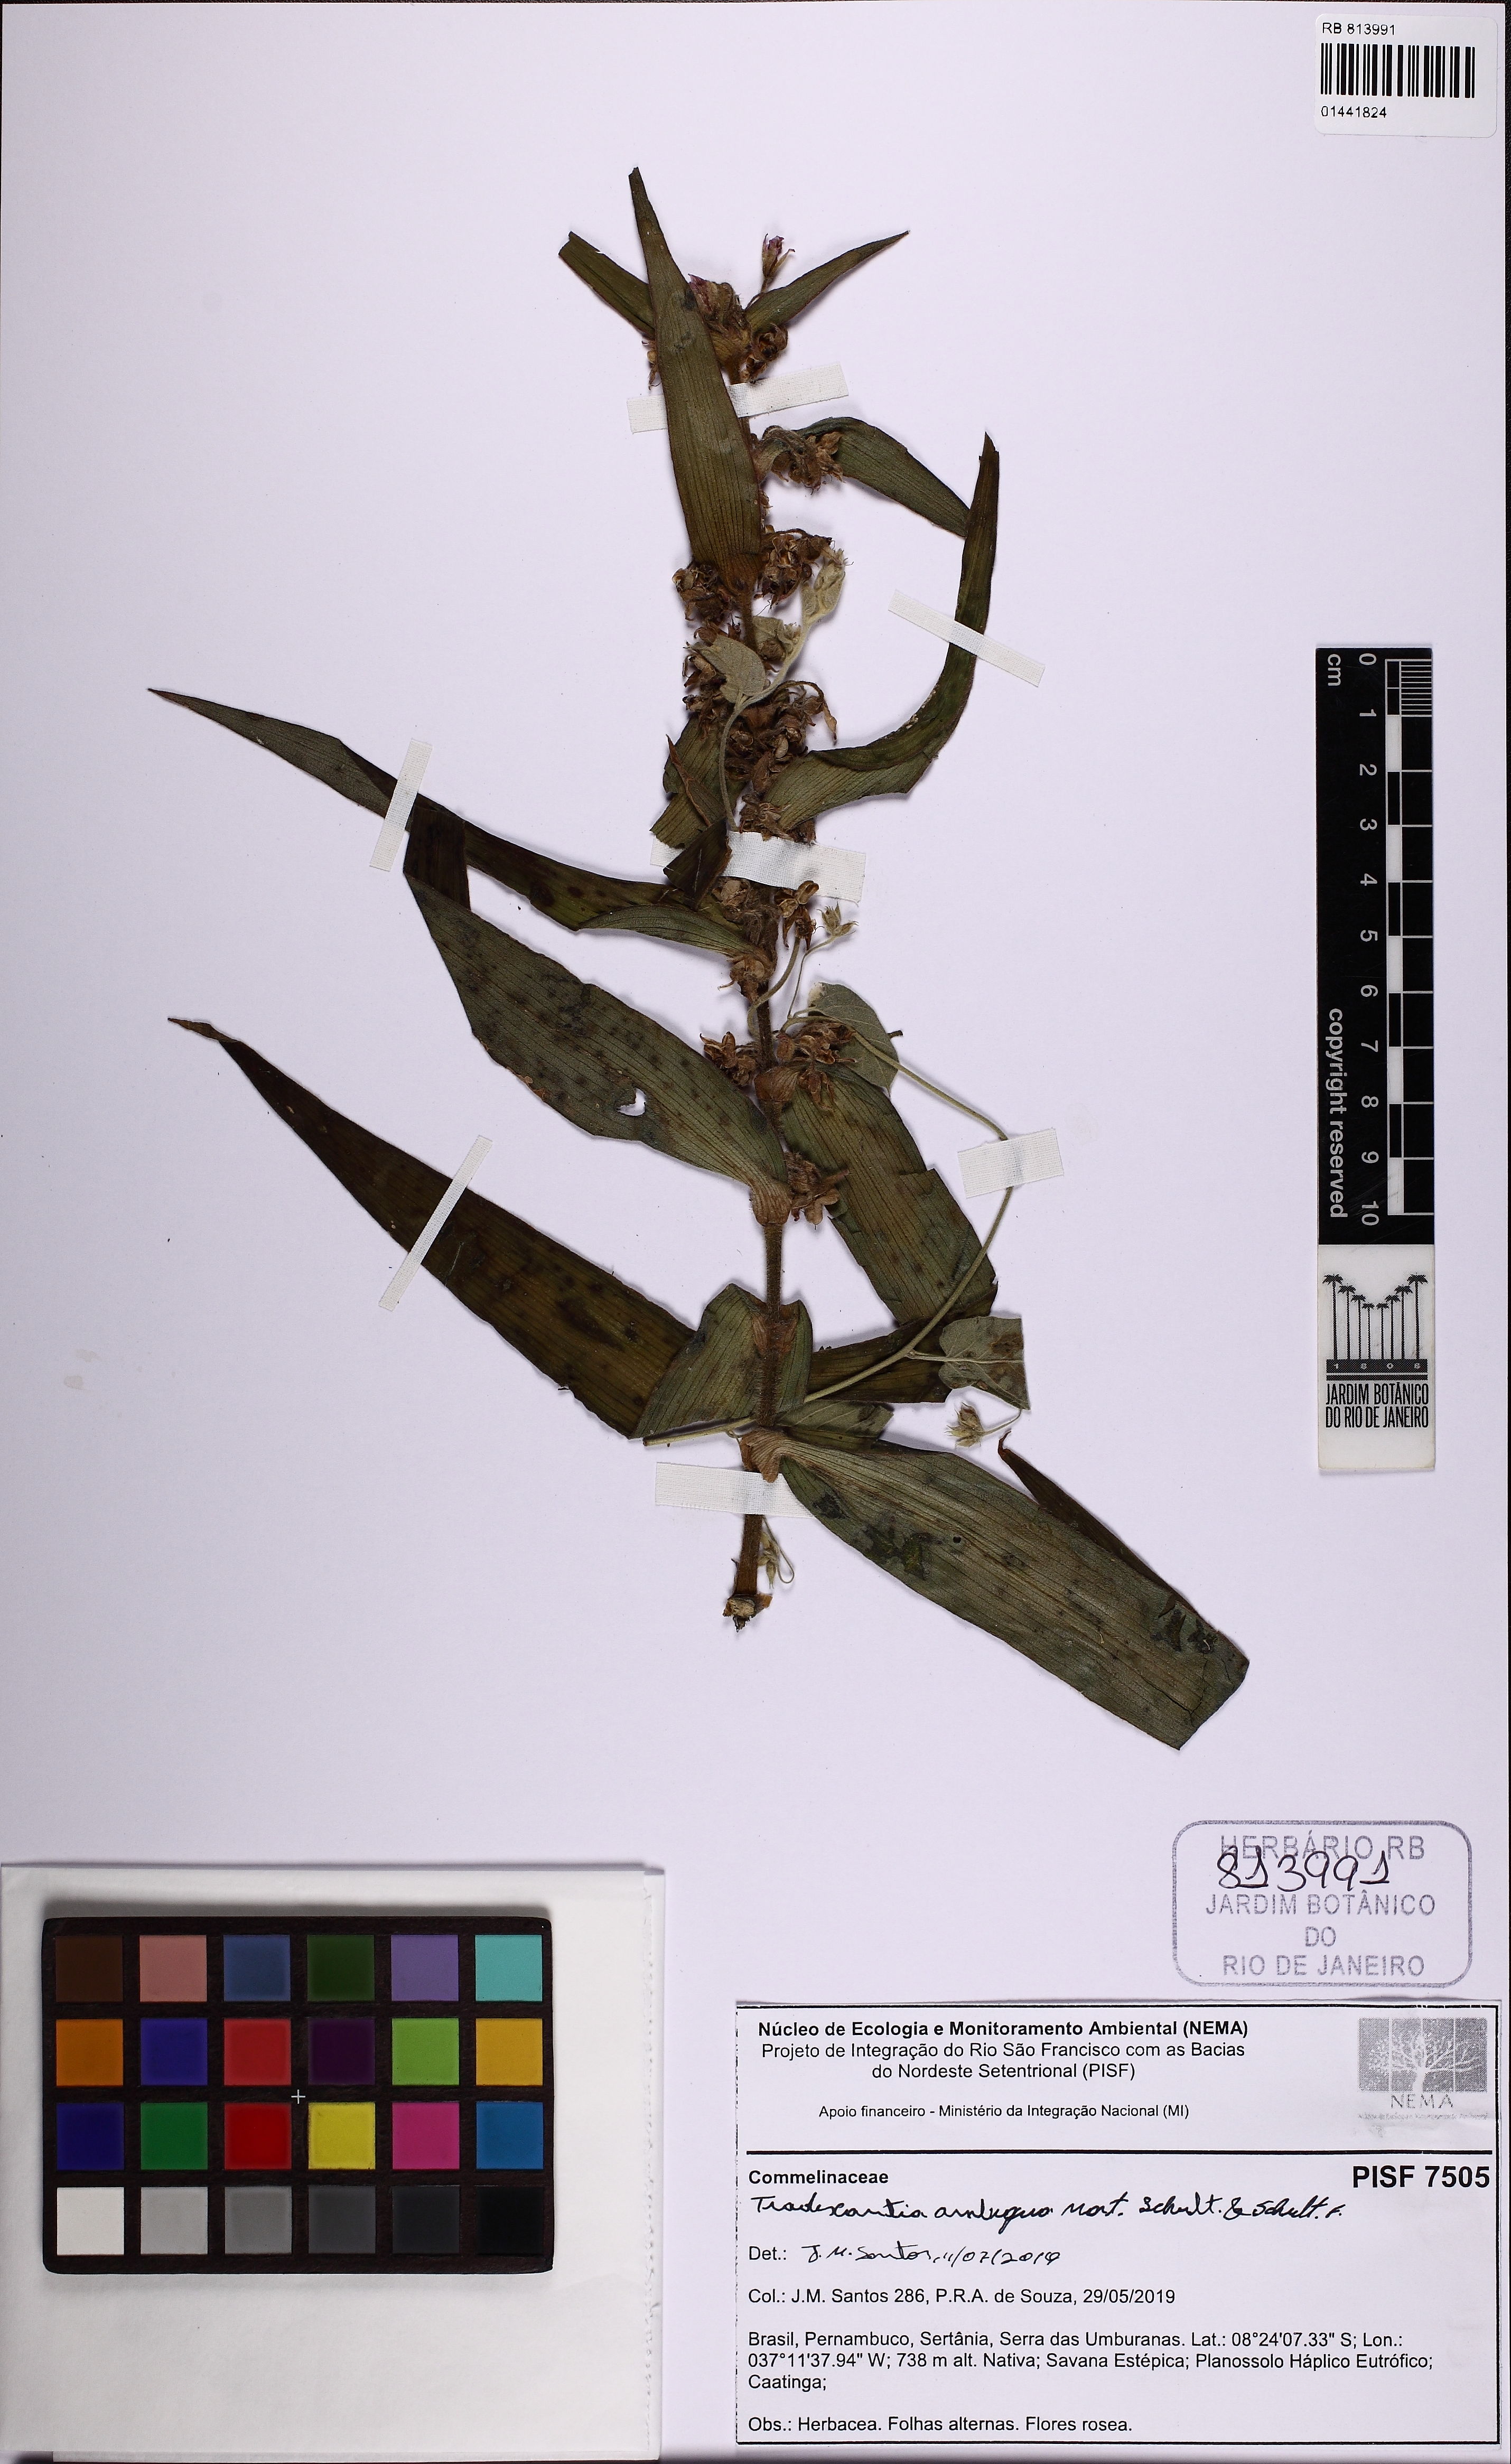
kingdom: Plantae
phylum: Tracheophyta
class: Liliopsida
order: Commelinales
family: Commelinaceae
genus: Tradescantia
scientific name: Tradescantia ambigua
